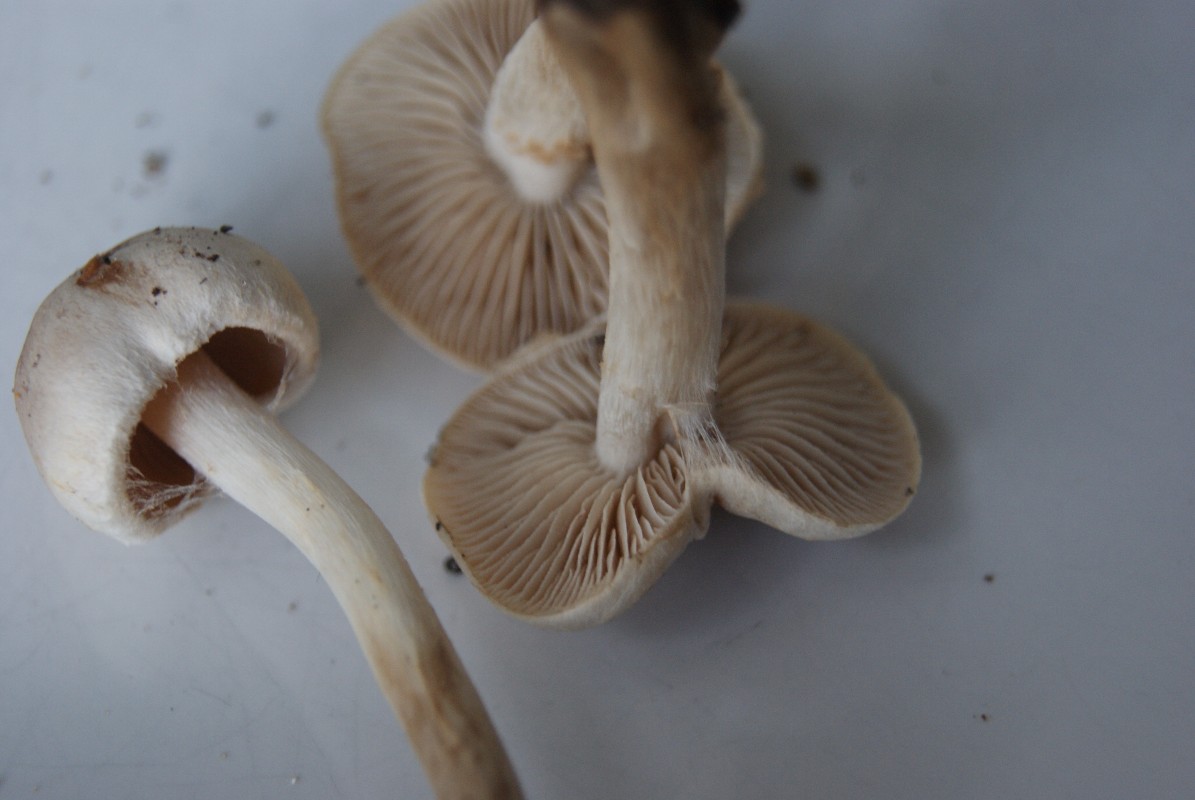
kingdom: Fungi
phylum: Basidiomycota
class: Agaricomycetes
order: Agaricales
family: Hymenogastraceae
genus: Hebeloma
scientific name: Hebeloma mesophaeum
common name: lerbrun tåreblad
